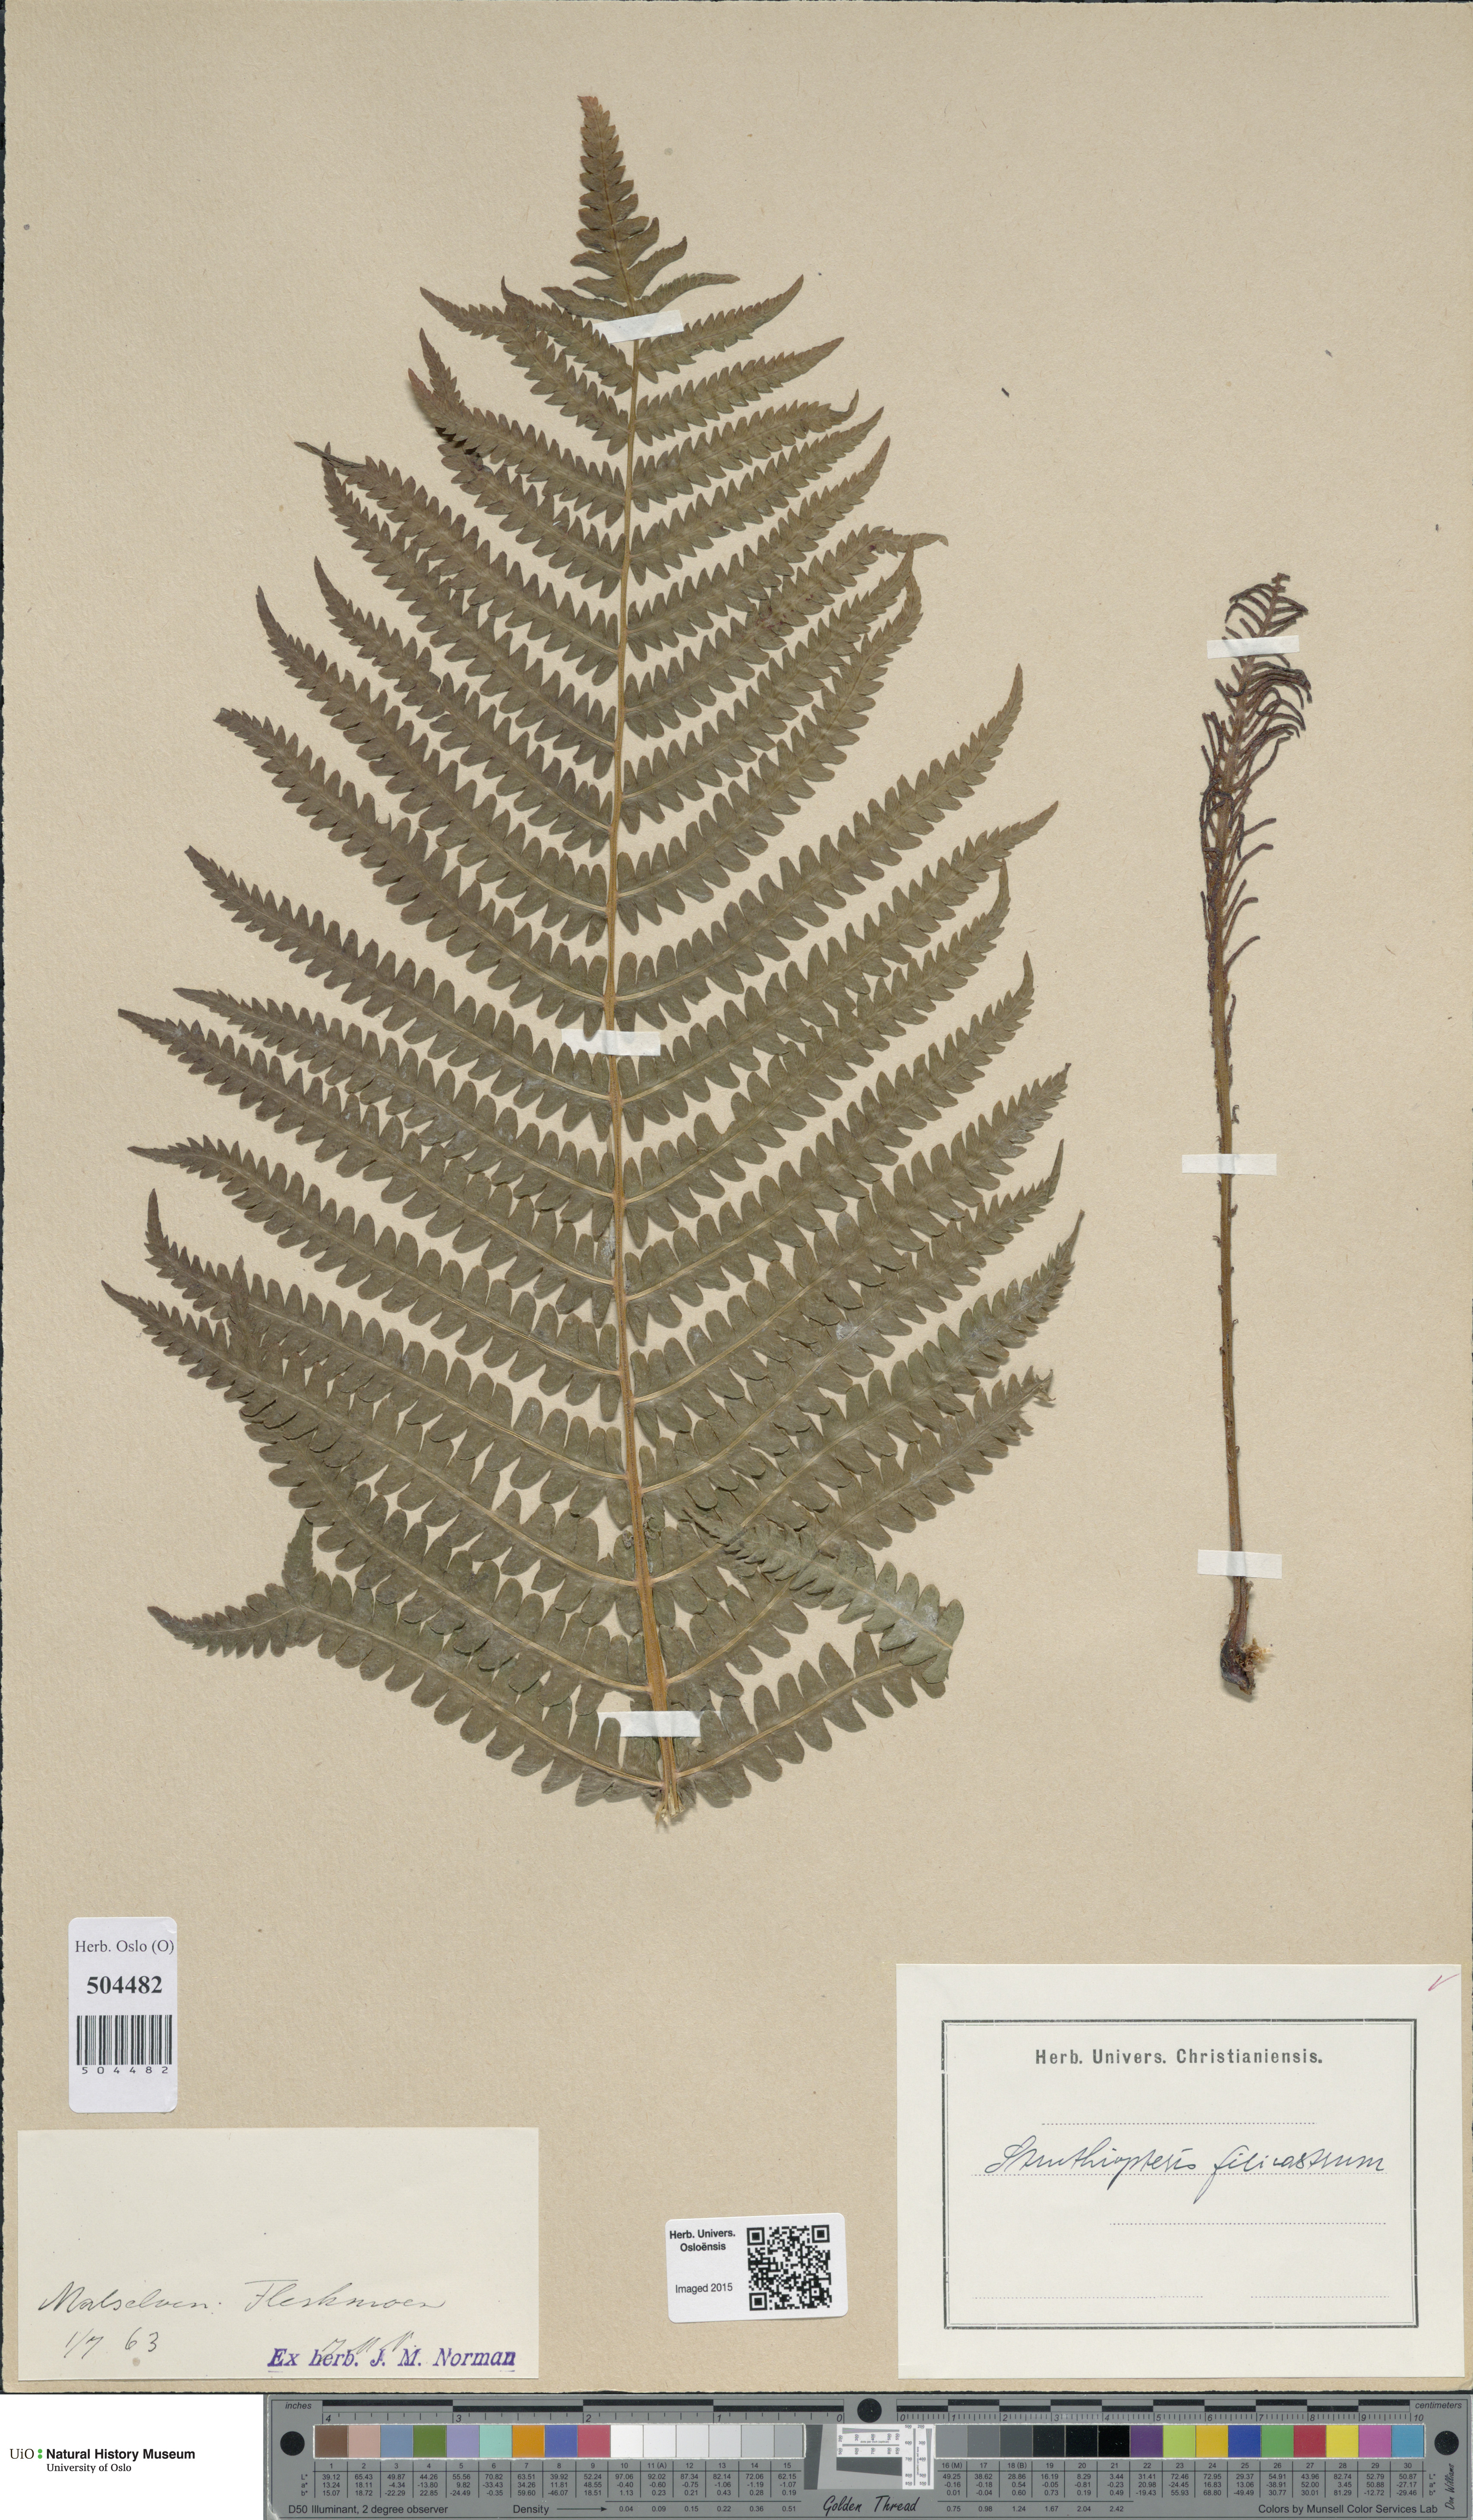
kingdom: Plantae
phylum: Tracheophyta
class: Polypodiopsida
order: Polypodiales
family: Onocleaceae
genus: Matteuccia
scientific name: Matteuccia struthiopteris
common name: Ostrich fern
